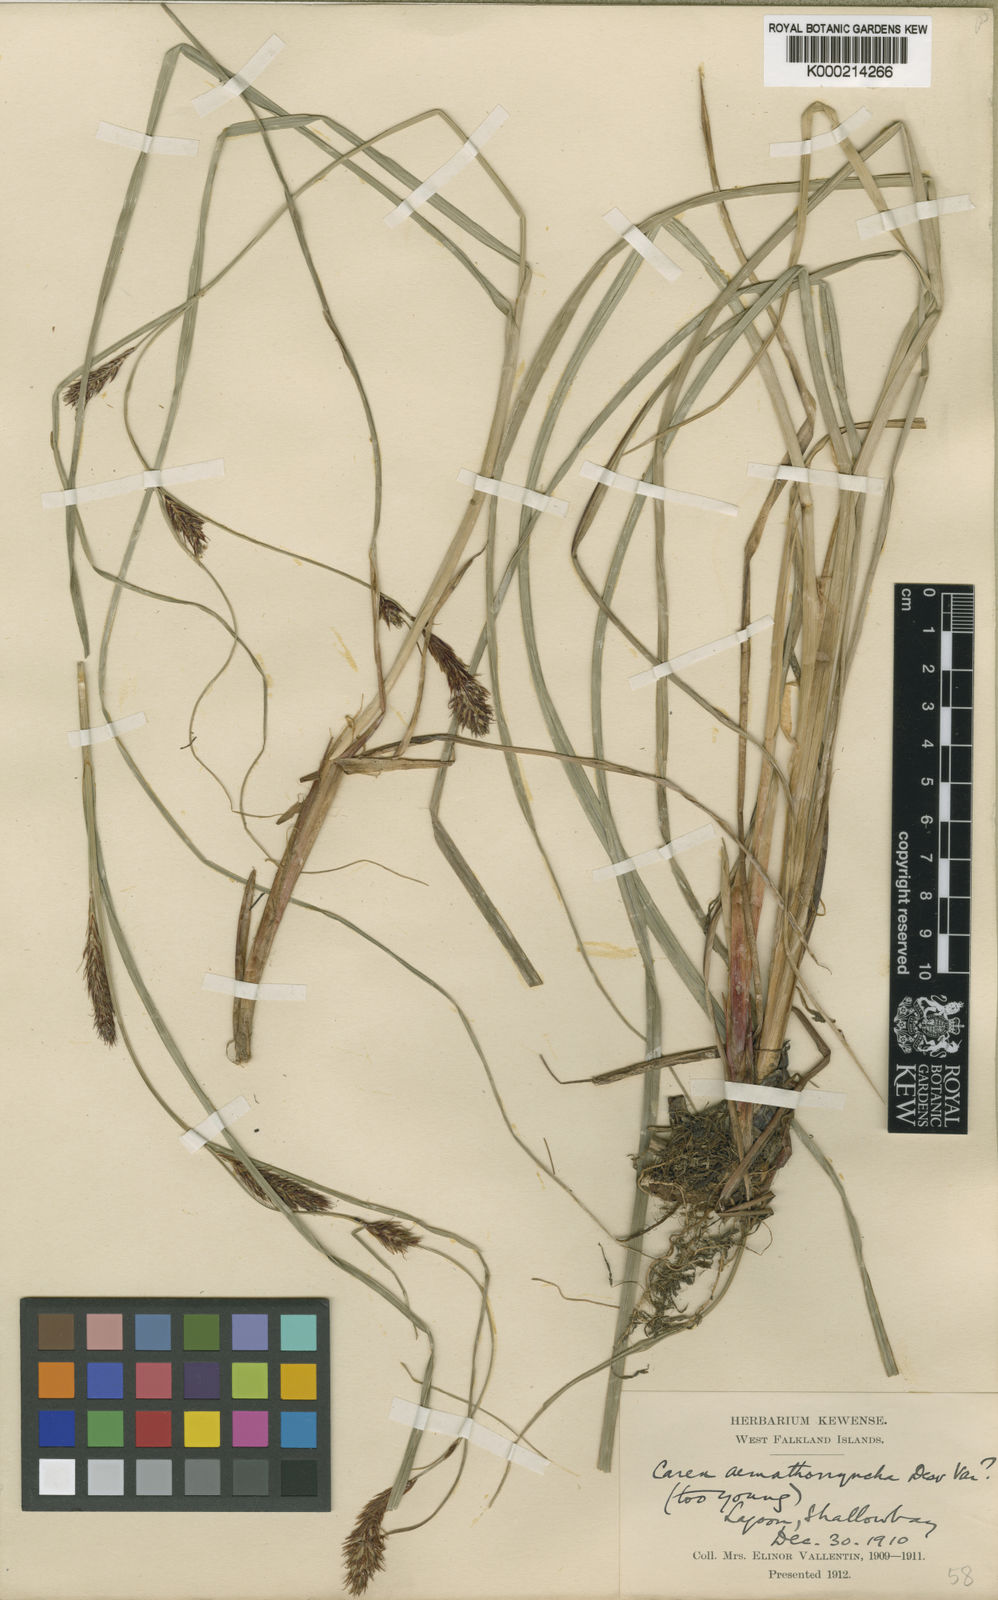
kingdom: Plantae
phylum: Tracheophyta
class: Liliopsida
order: Poales
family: Cyperaceae
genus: Carex
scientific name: Carex aematorhyncha
